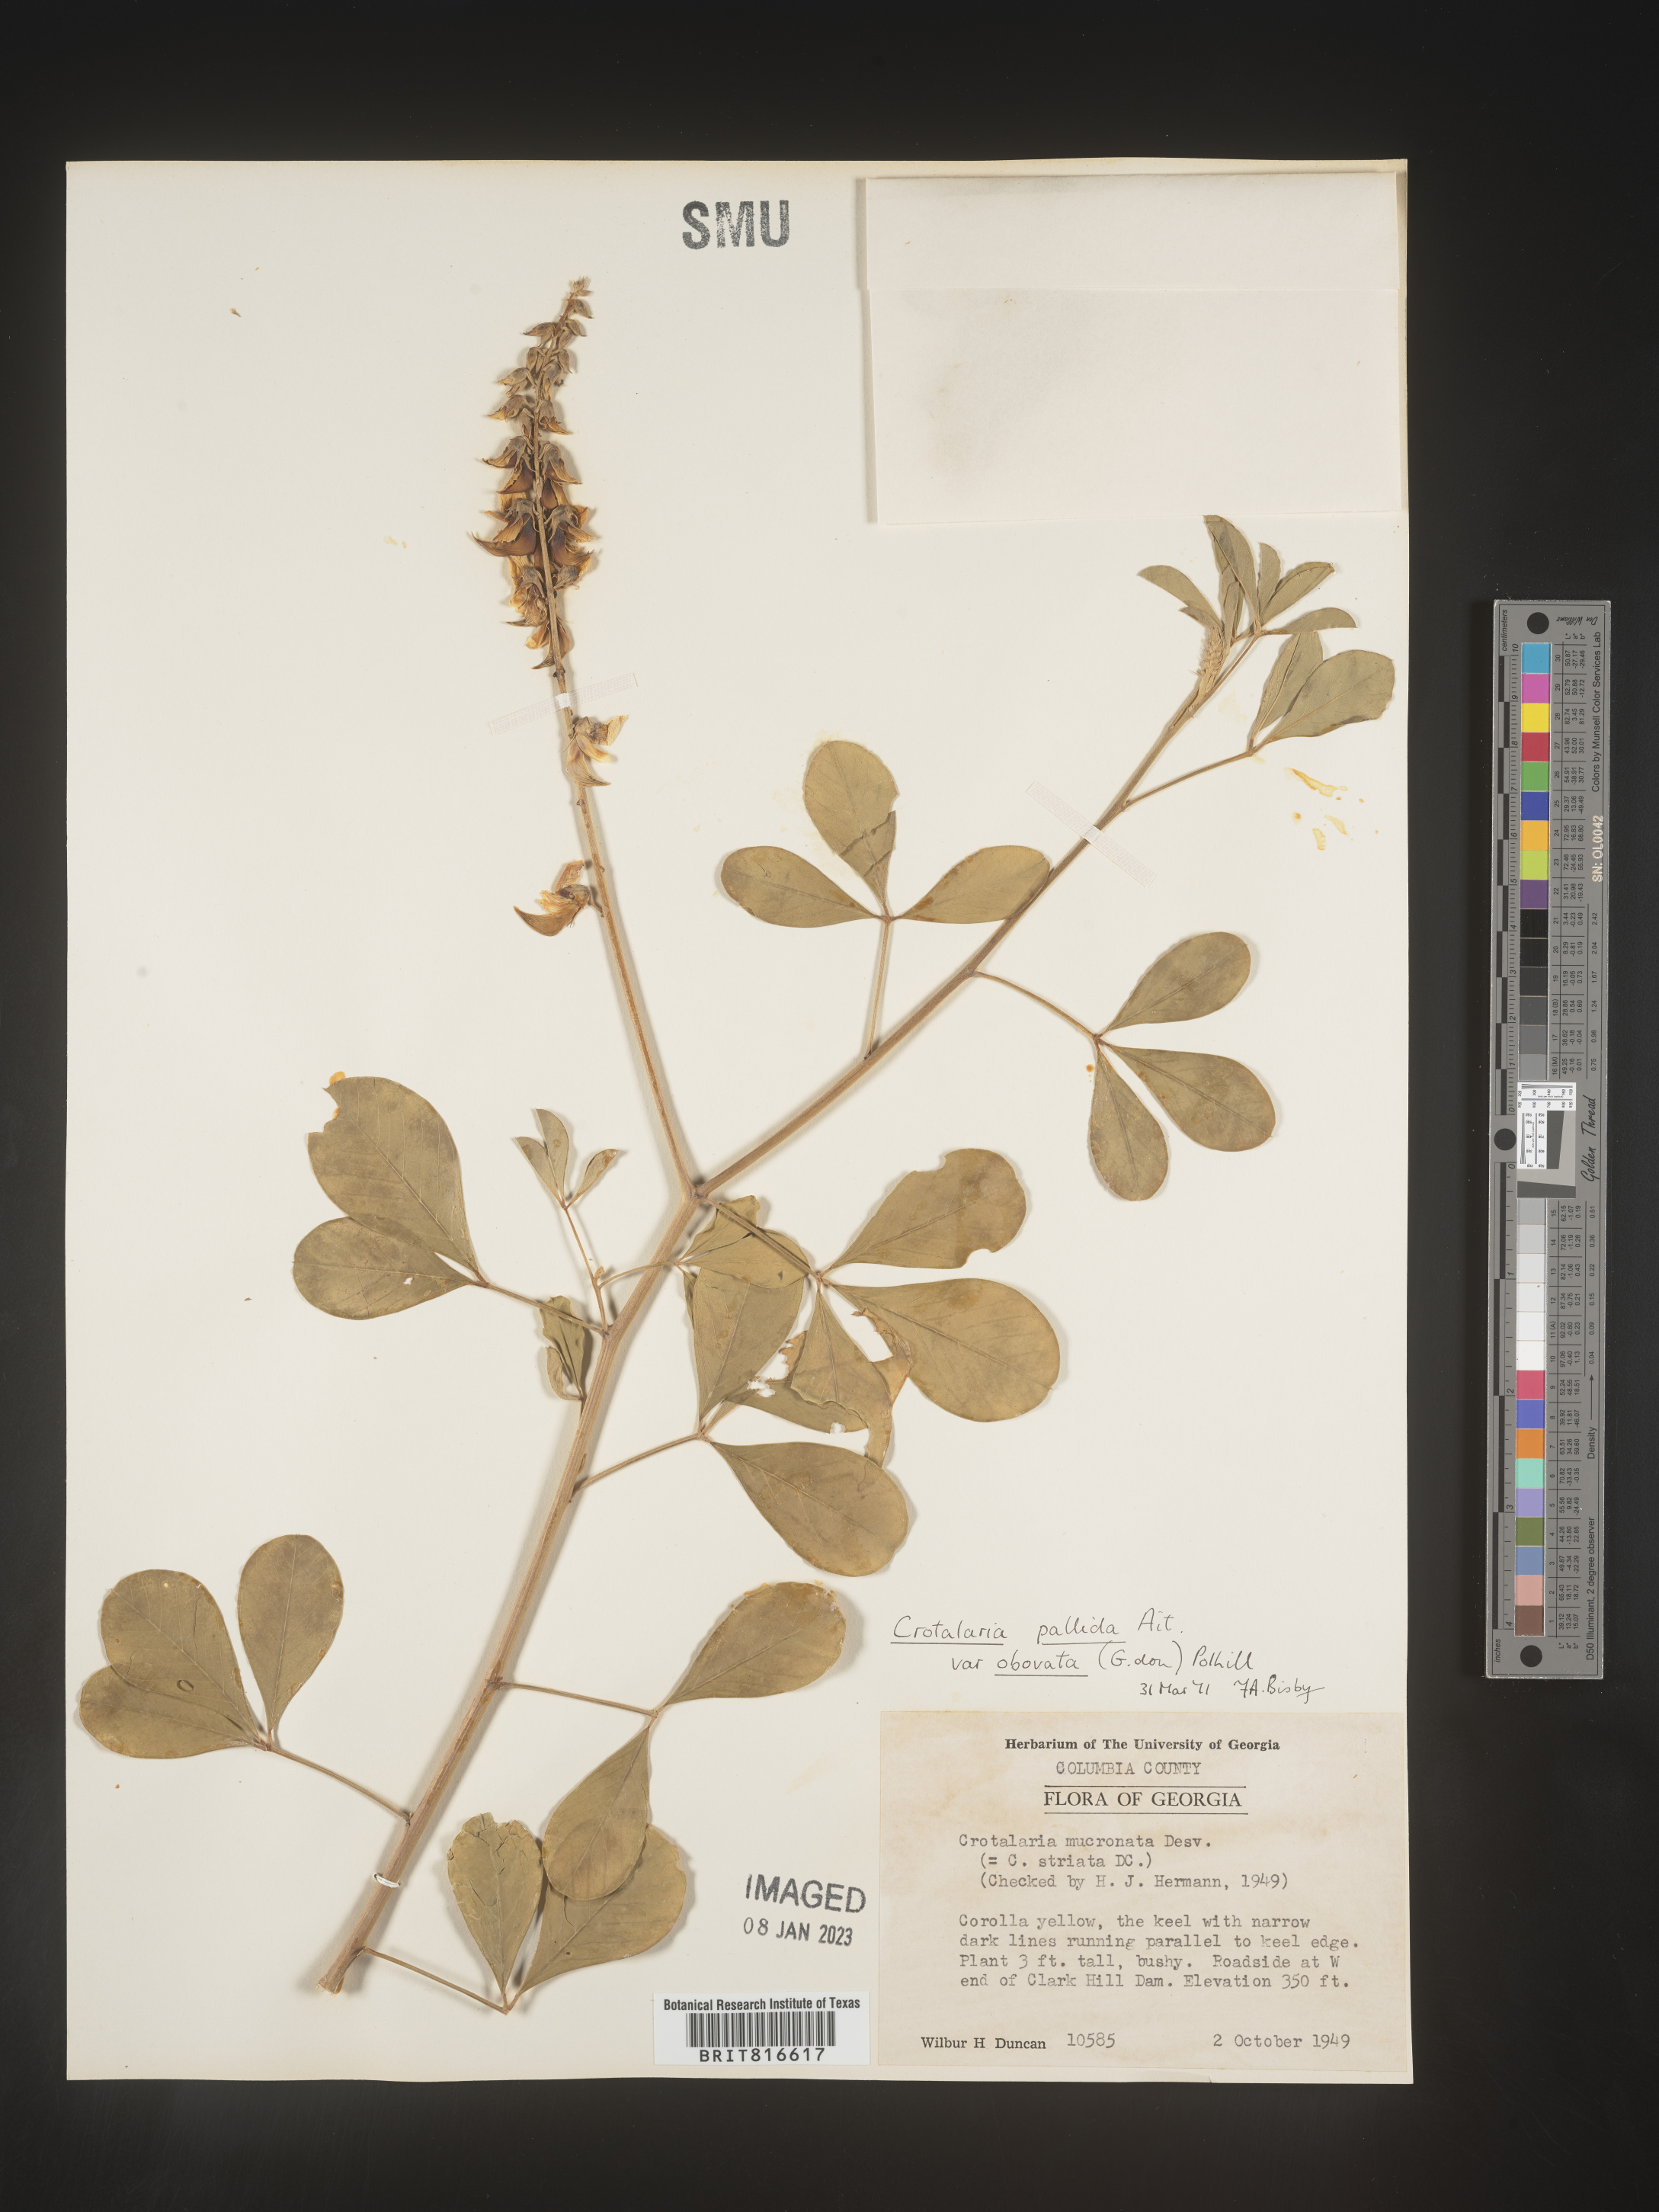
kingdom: Plantae
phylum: Tracheophyta
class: Magnoliopsida
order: Fabales
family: Fabaceae
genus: Crotalaria
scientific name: Crotalaria linifolia
